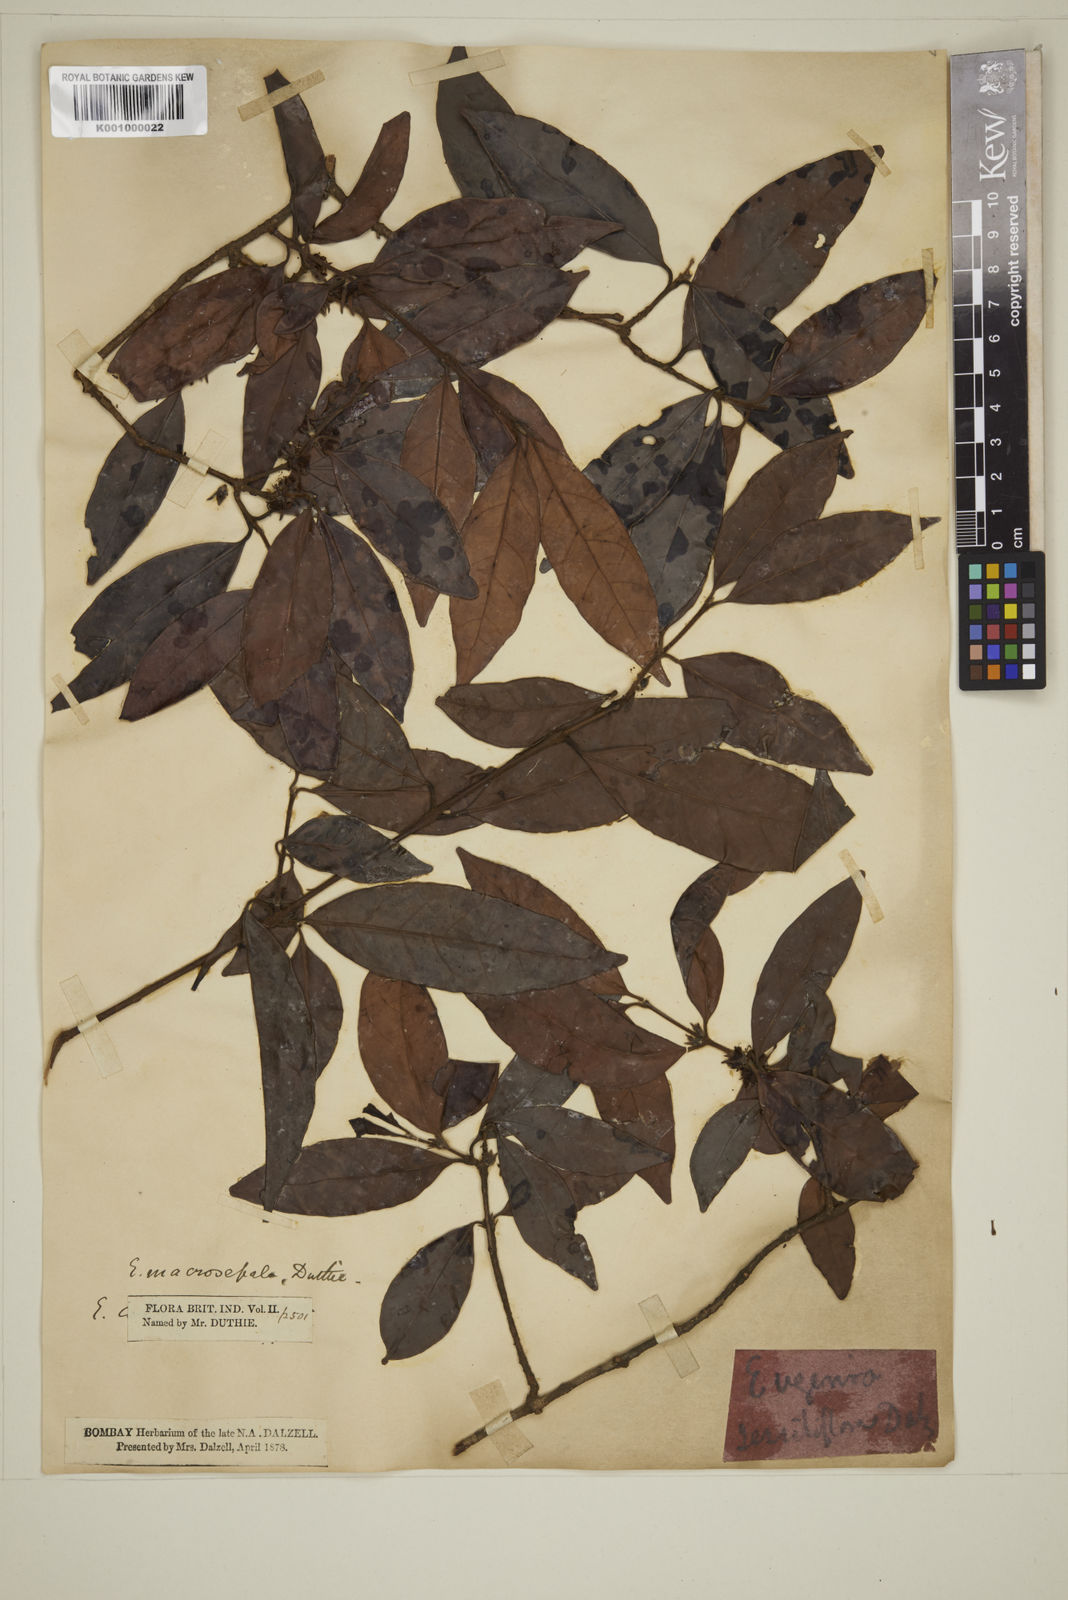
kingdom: Plantae
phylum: Tracheophyta
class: Magnoliopsida
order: Myrtales
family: Myrtaceae
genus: Eugenia
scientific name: Eugenia macrosepala
